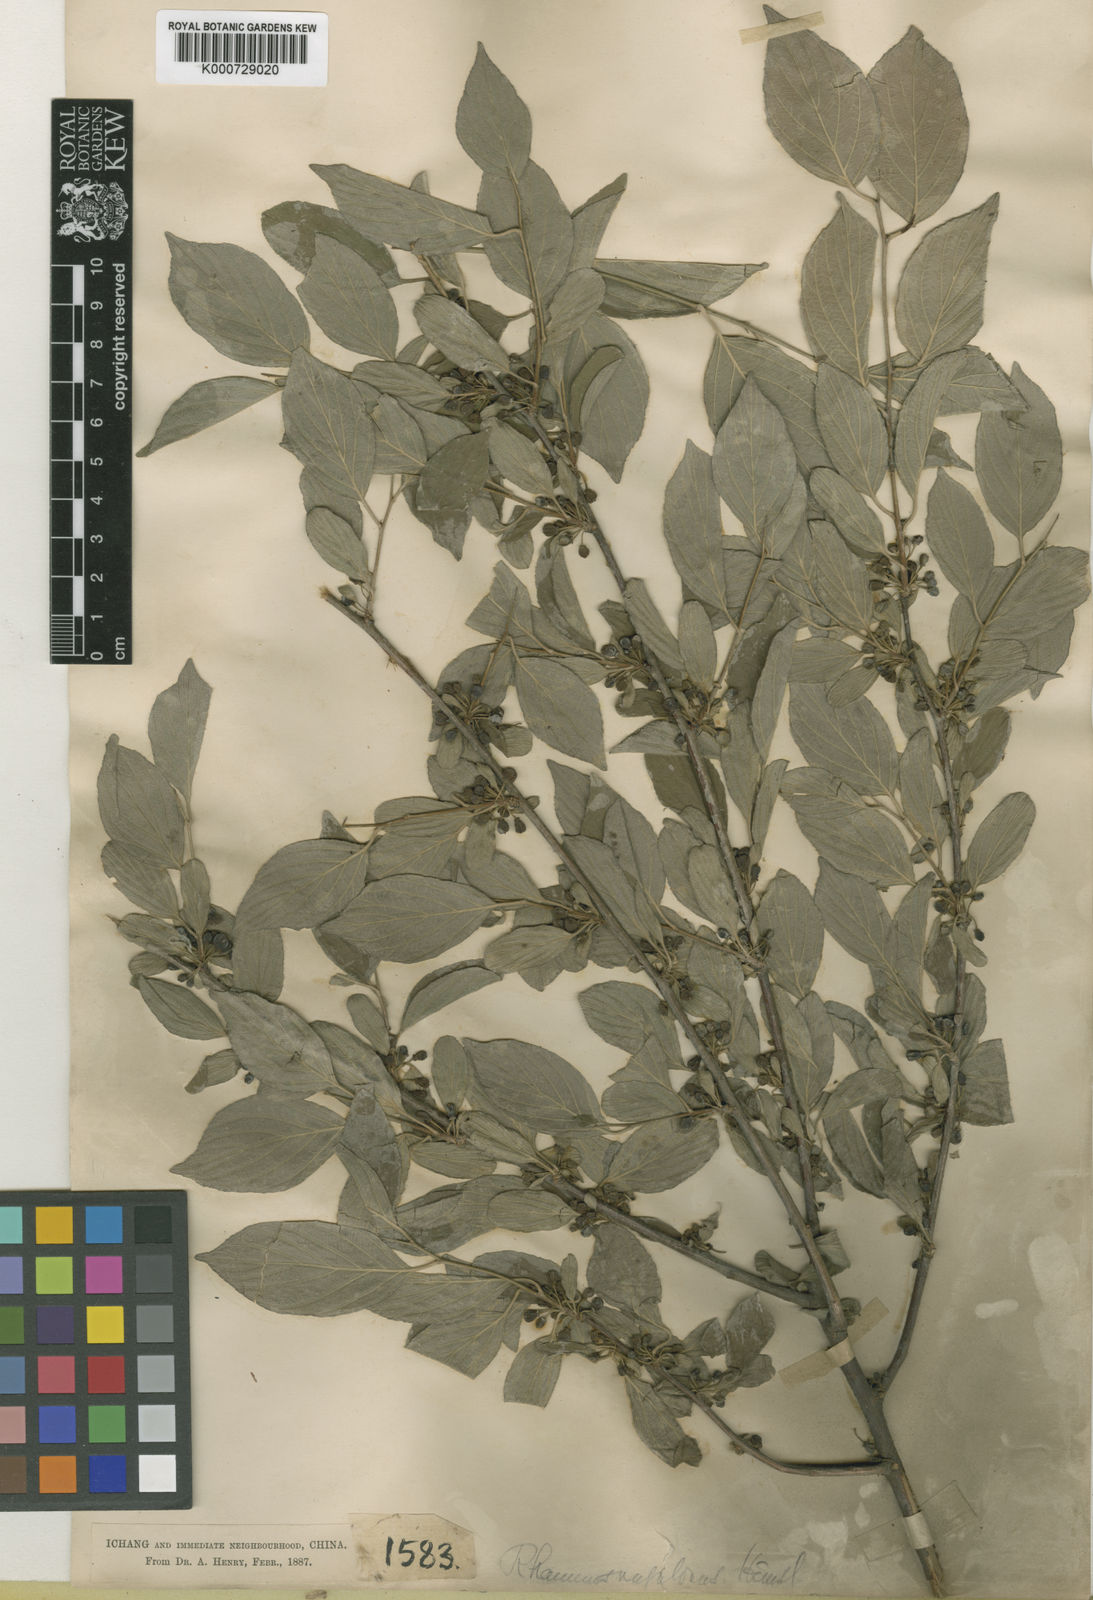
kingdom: Plantae
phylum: Tracheophyta
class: Magnoliopsida
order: Rosales
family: Rhamnaceae
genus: Rhamnus
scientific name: Rhamnus rugulosa
